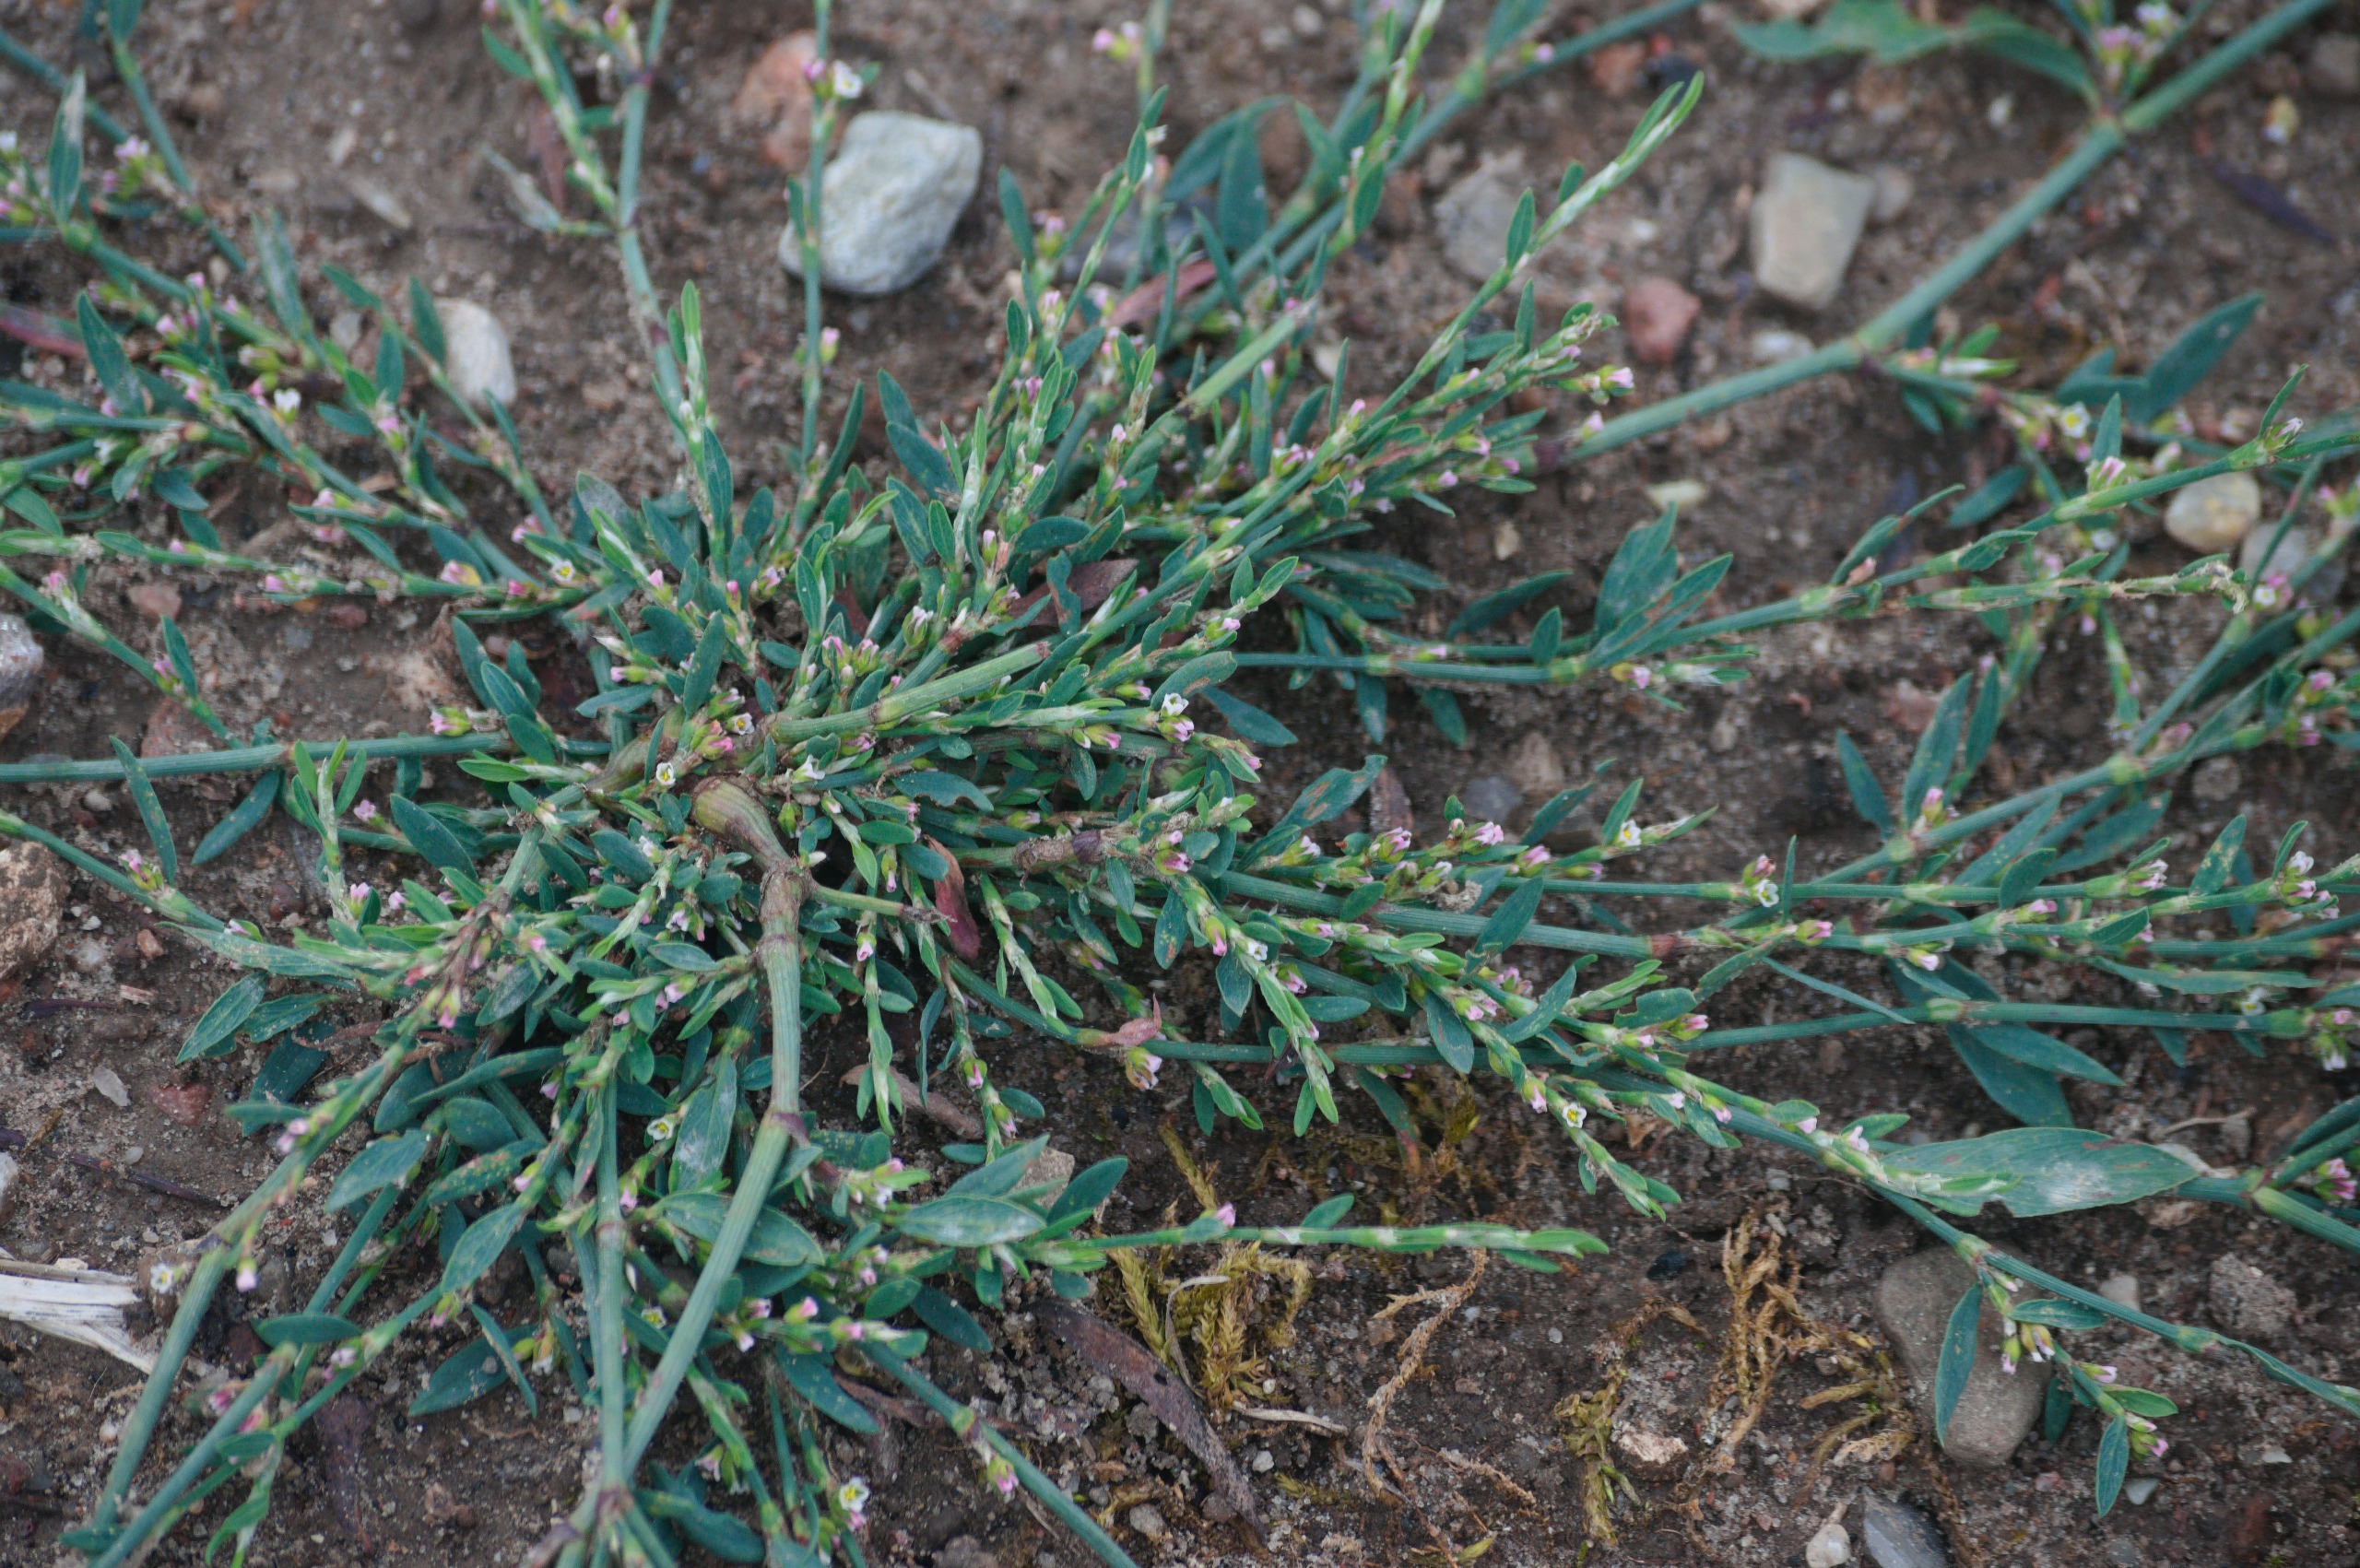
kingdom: Plantae
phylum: Tracheophyta
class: Magnoliopsida
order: Caryophyllales
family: Polygonaceae
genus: Polygonum
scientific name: Polygonum aviculare
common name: Vej-pileurt
